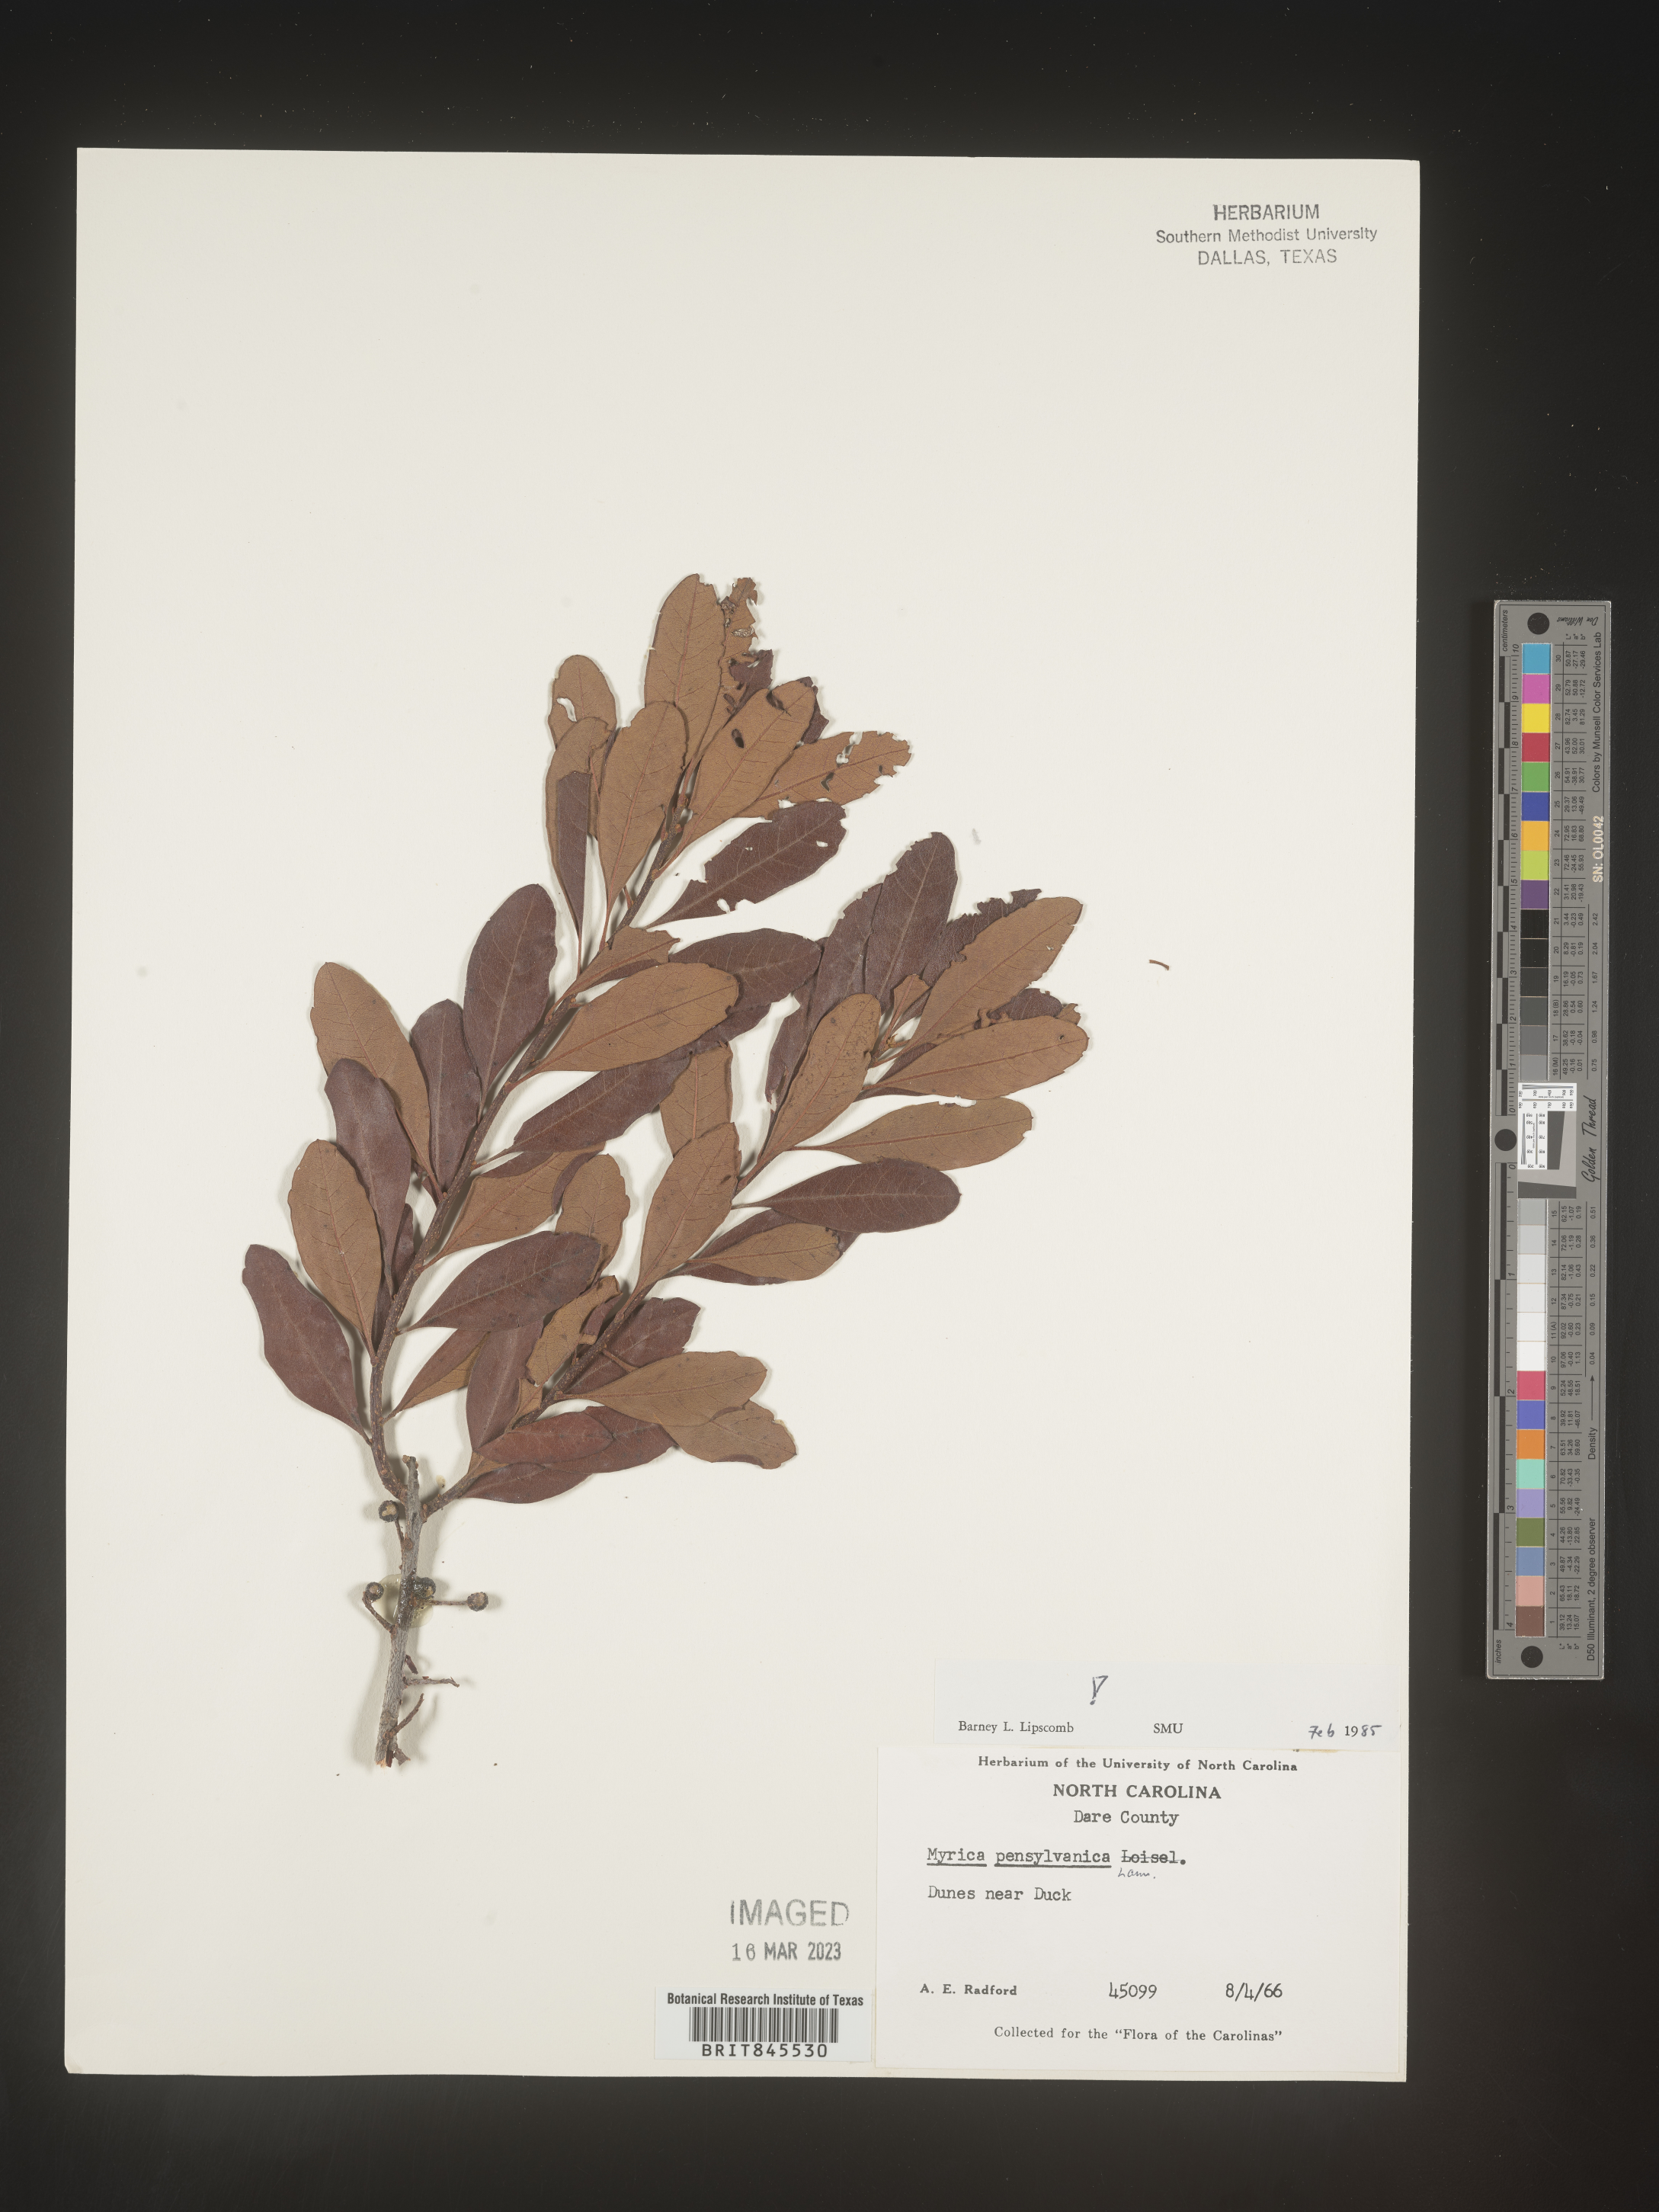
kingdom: Plantae
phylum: Tracheophyta
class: Magnoliopsida
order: Fagales
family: Myricaceae
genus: Myrica
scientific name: Myrica
